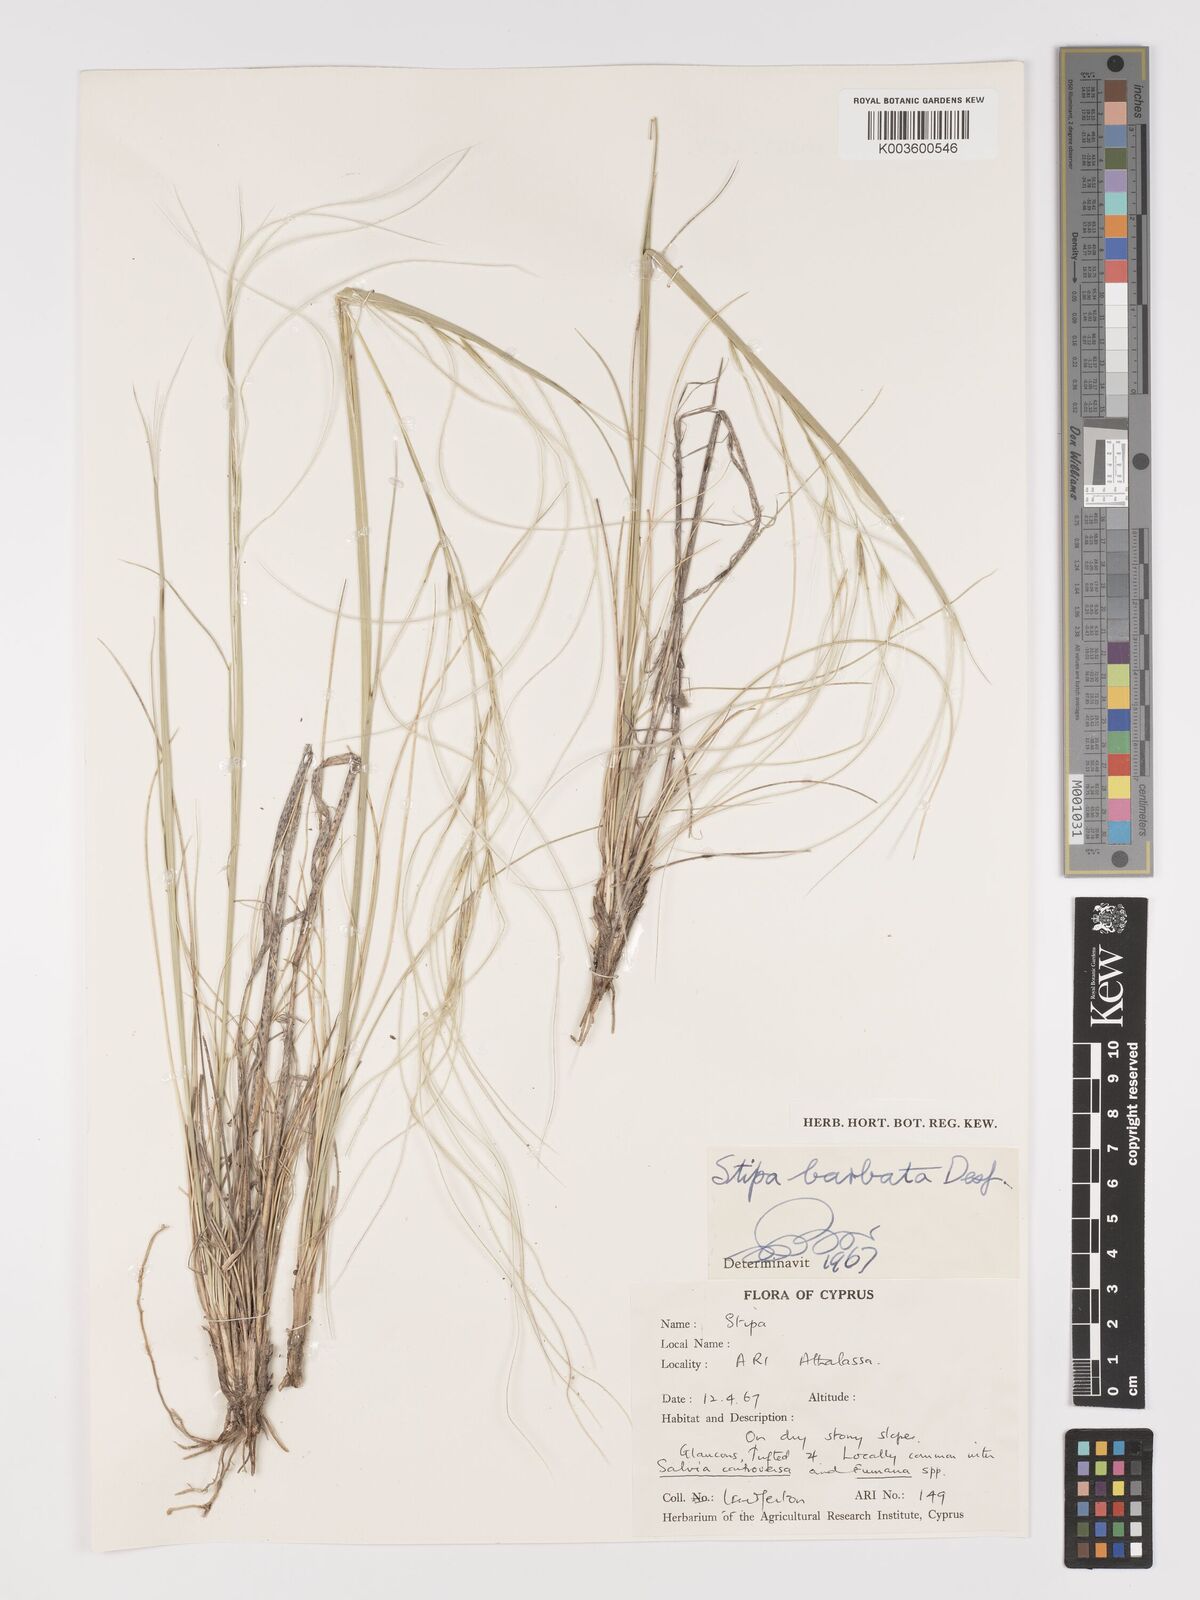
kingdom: Plantae
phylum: Tracheophyta
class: Liliopsida
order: Poales
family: Poaceae
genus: Stipa
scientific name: Stipa barbata
